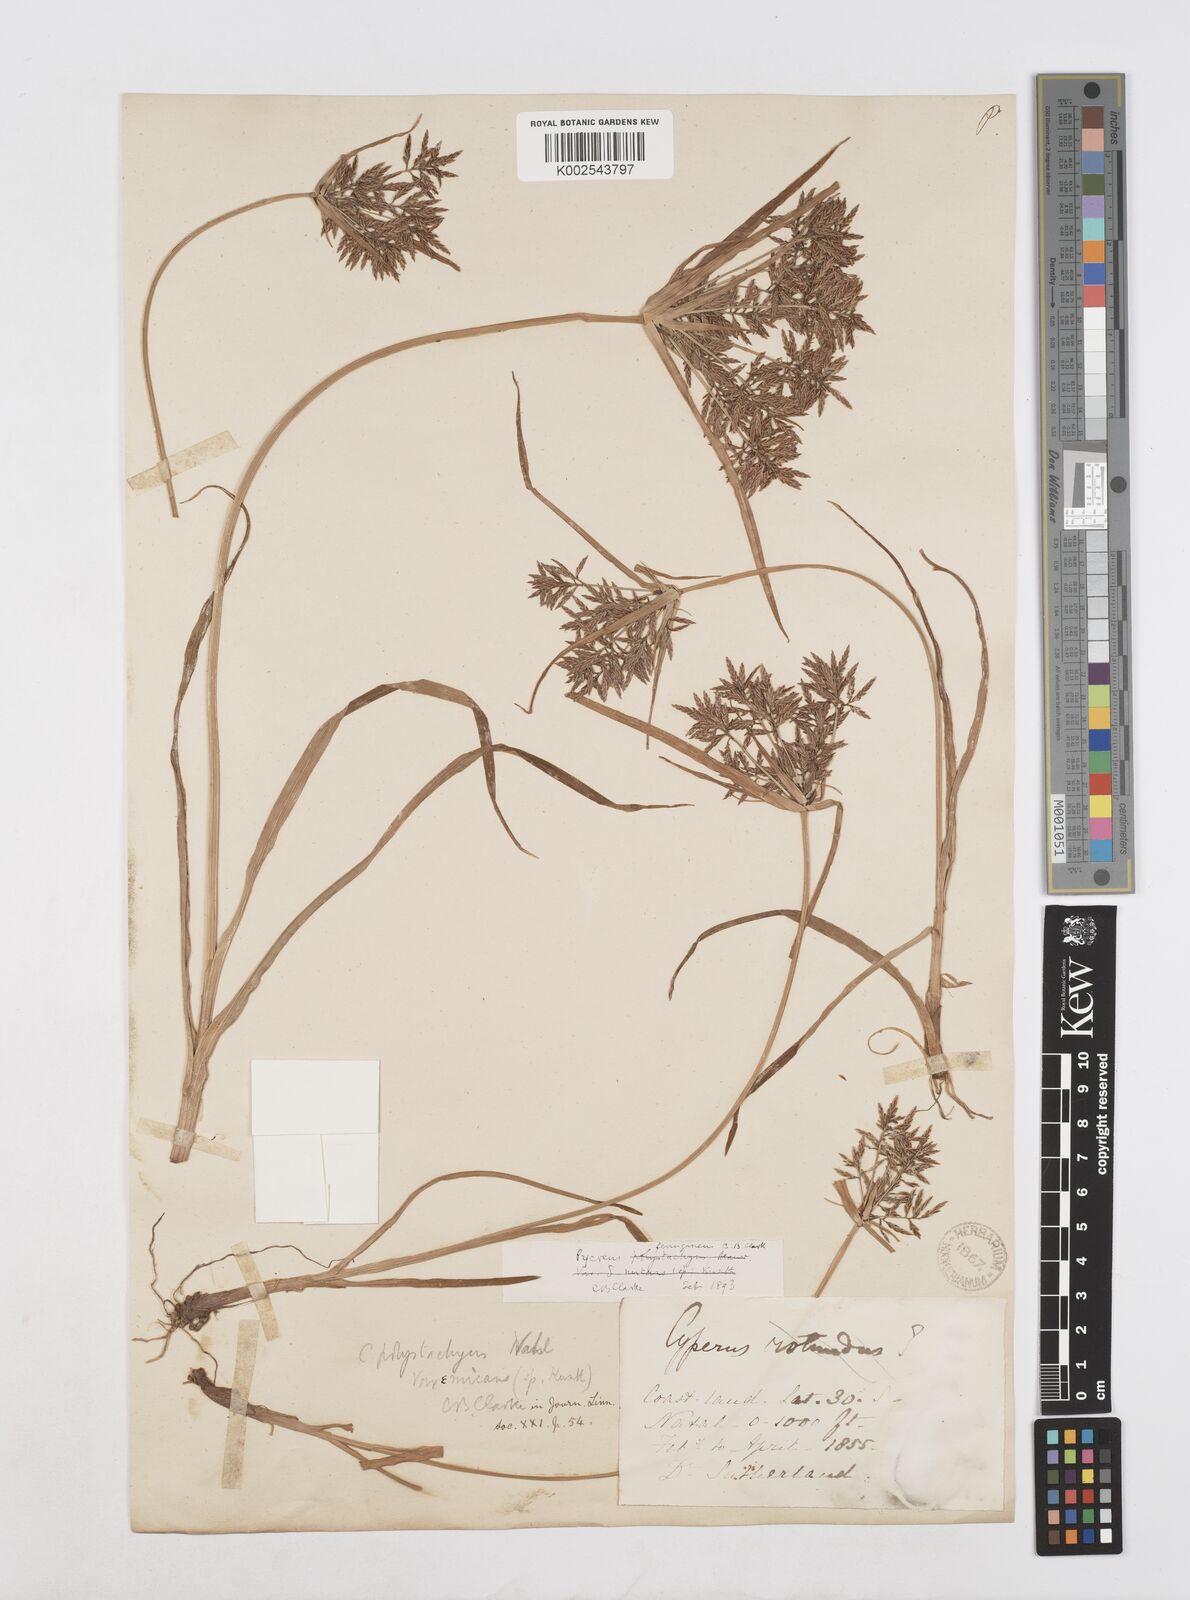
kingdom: Plantae
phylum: Tracheophyta
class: Liliopsida
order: Poales
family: Cyperaceae
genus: Cyperus
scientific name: Cyperus intactus
